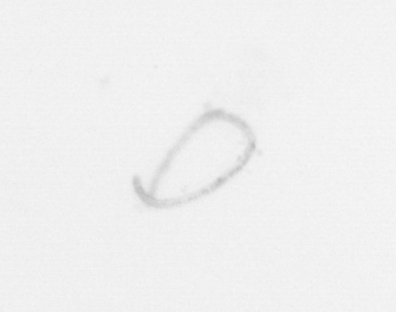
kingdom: Chromista
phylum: Ochrophyta
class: Bacillariophyceae
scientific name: Bacillariophyceae
